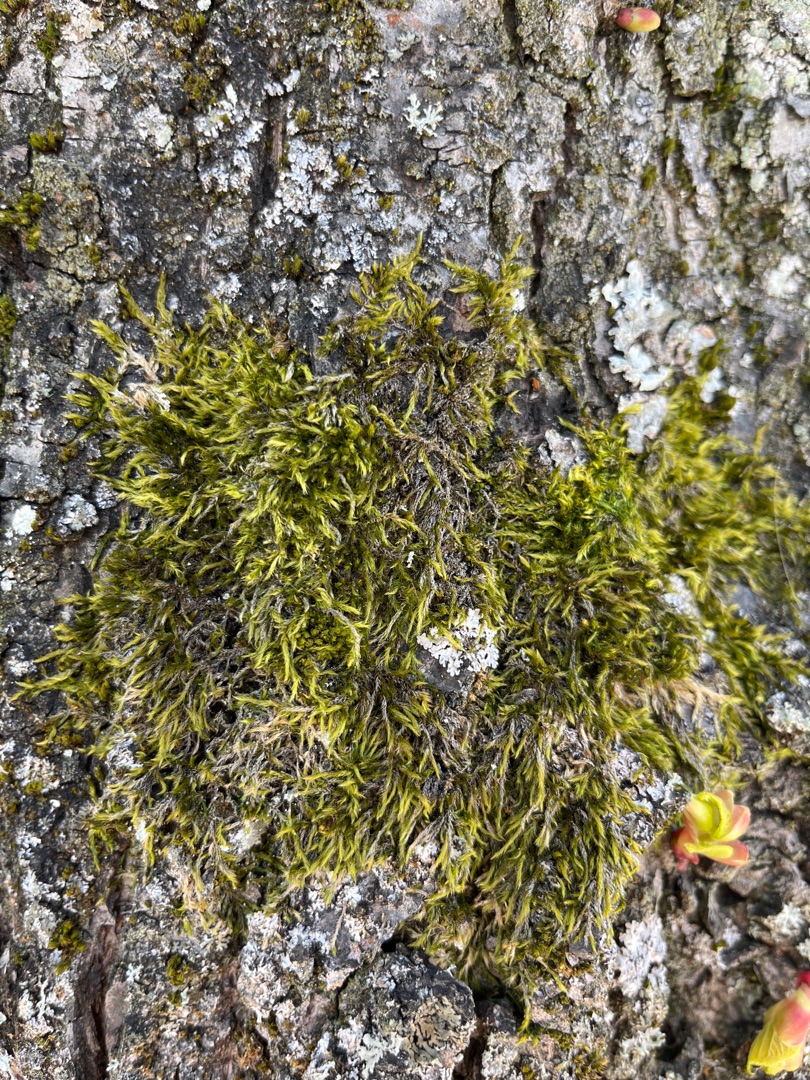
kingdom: Plantae
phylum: Bryophyta
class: Bryopsida
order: Hypnales
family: Hypnaceae
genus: Hypnum
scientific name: Hypnum
